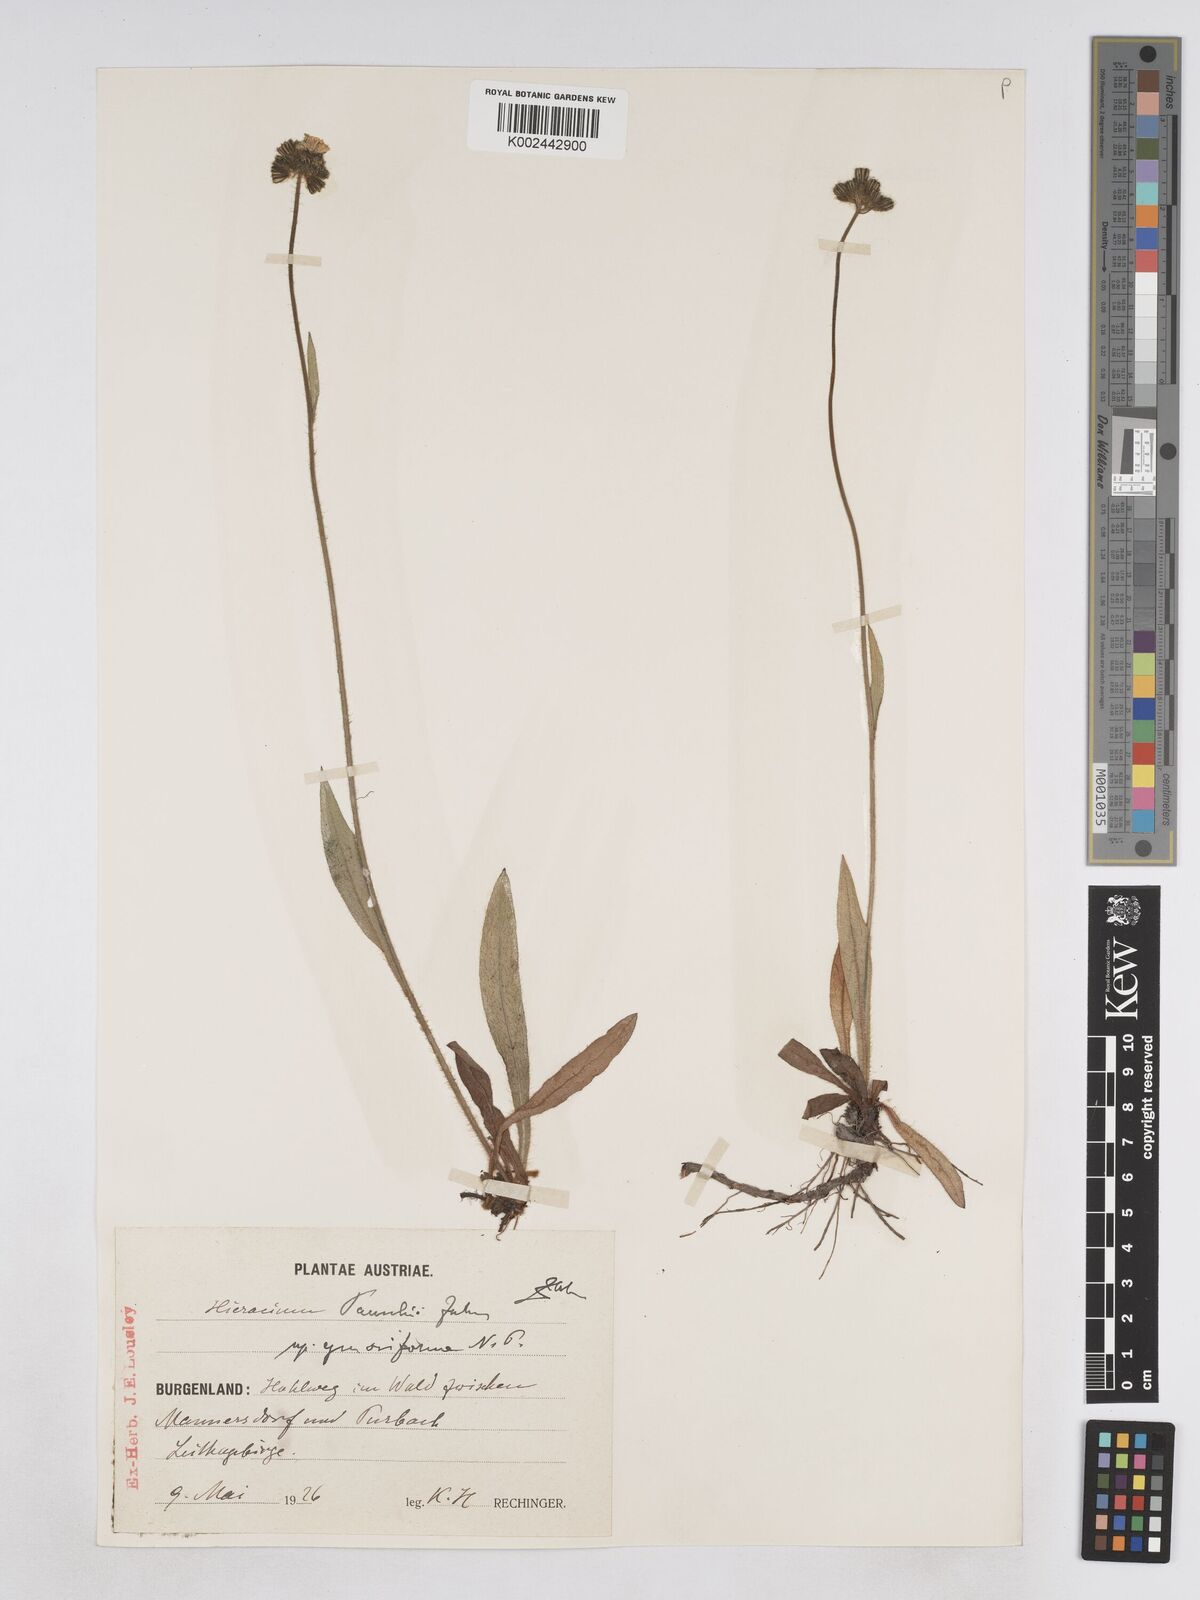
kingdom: Plantae
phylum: Tracheophyta
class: Magnoliopsida
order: Asterales
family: Asteraceae
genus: Pilosella
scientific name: Pilosella pavichii
